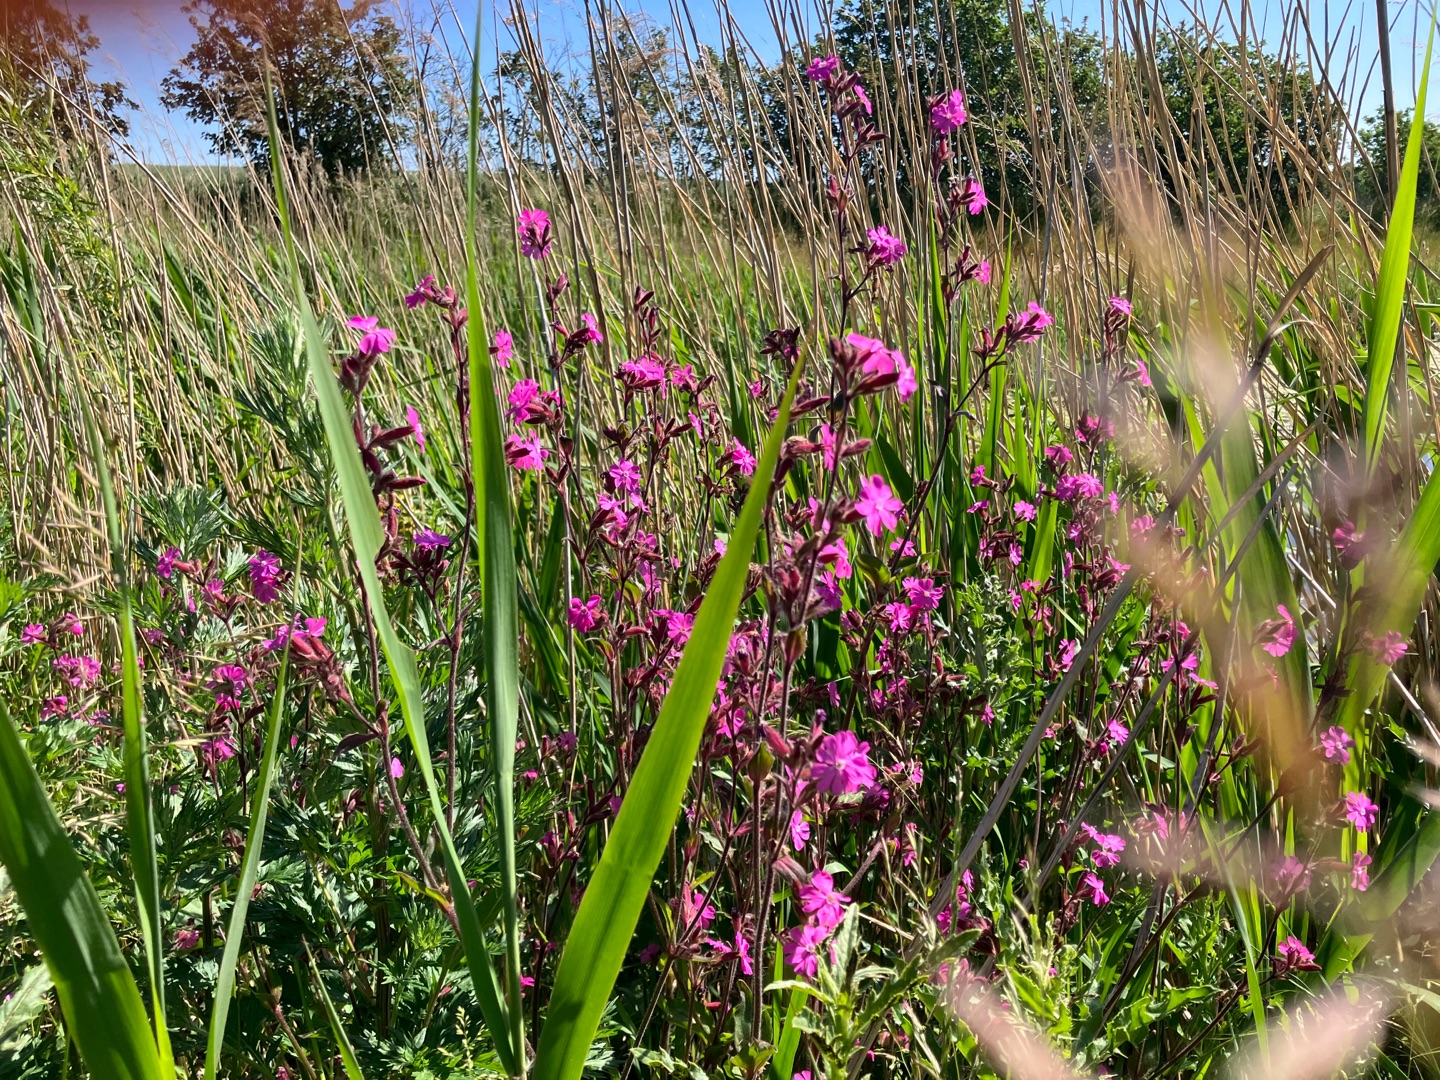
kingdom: Plantae
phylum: Tracheophyta
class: Magnoliopsida
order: Caryophyllales
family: Caryophyllaceae
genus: Silene
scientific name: Silene dioica
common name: Dagpragtstjerne
